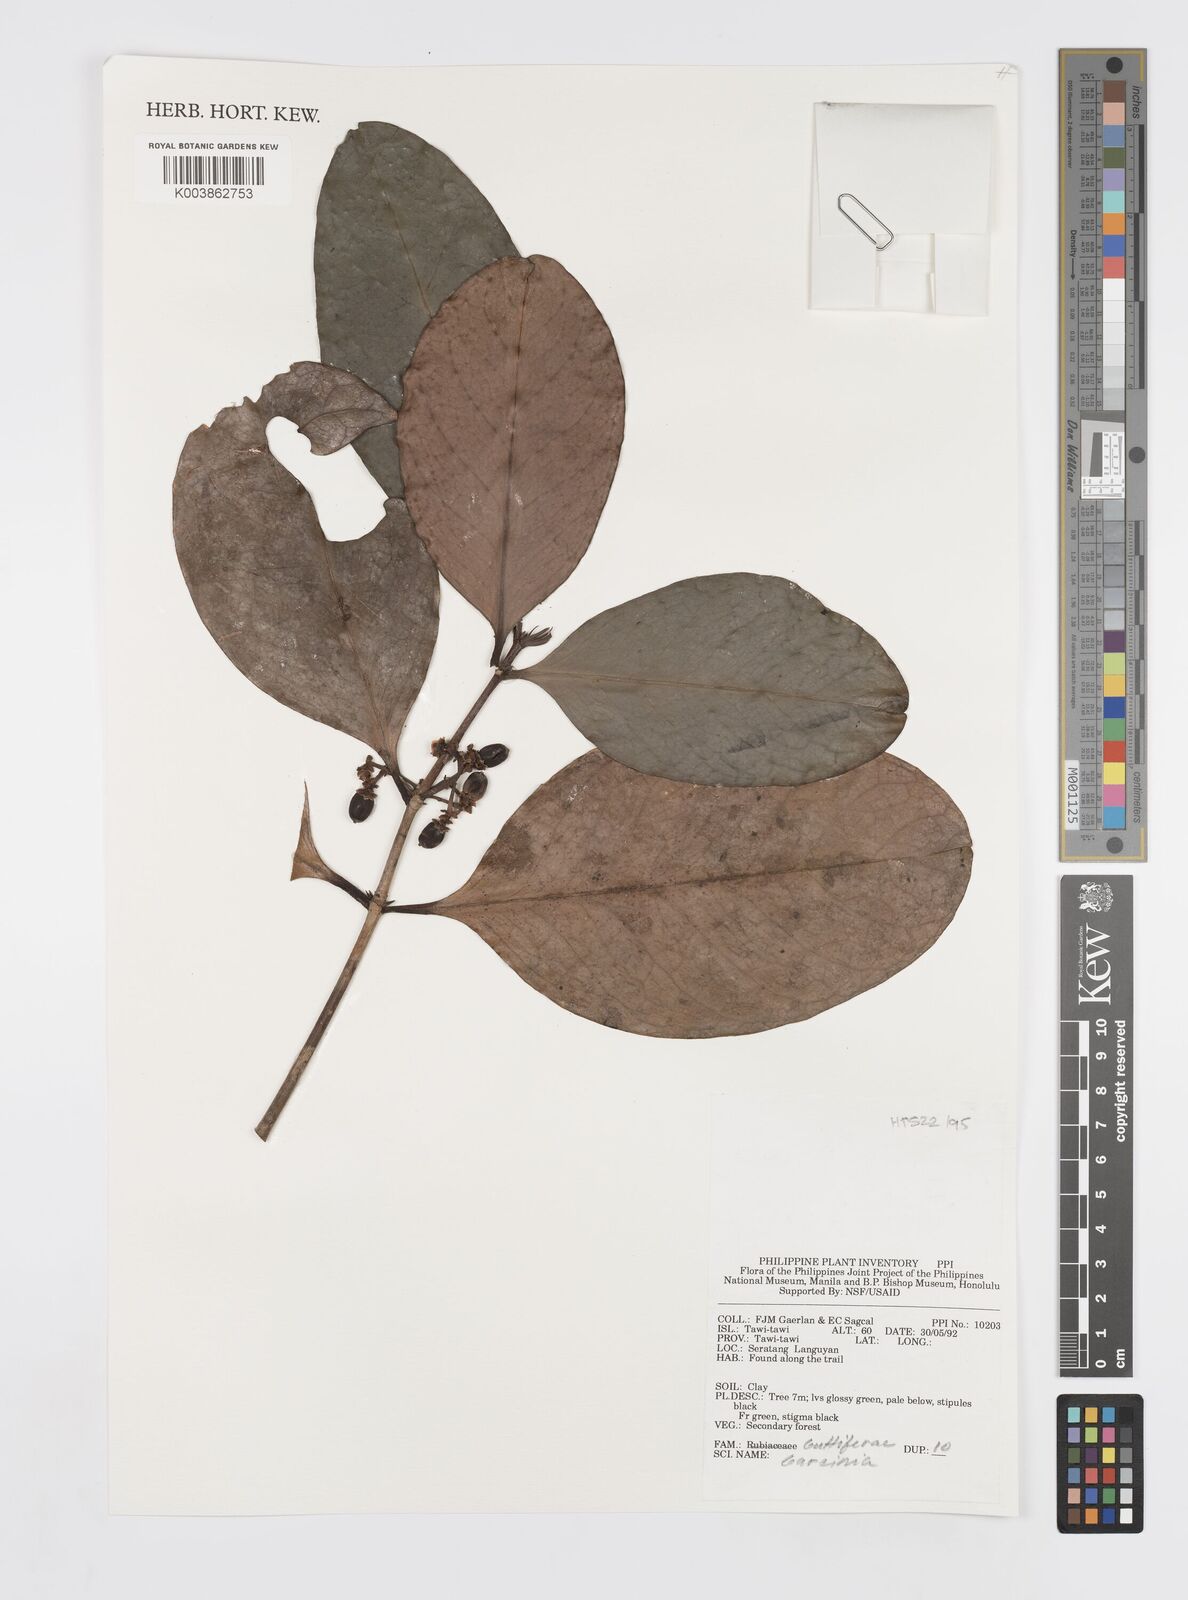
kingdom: Plantae
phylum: Tracheophyta
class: Magnoliopsida
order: Malpighiales
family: Clusiaceae
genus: Garcinia
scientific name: Garcinia
